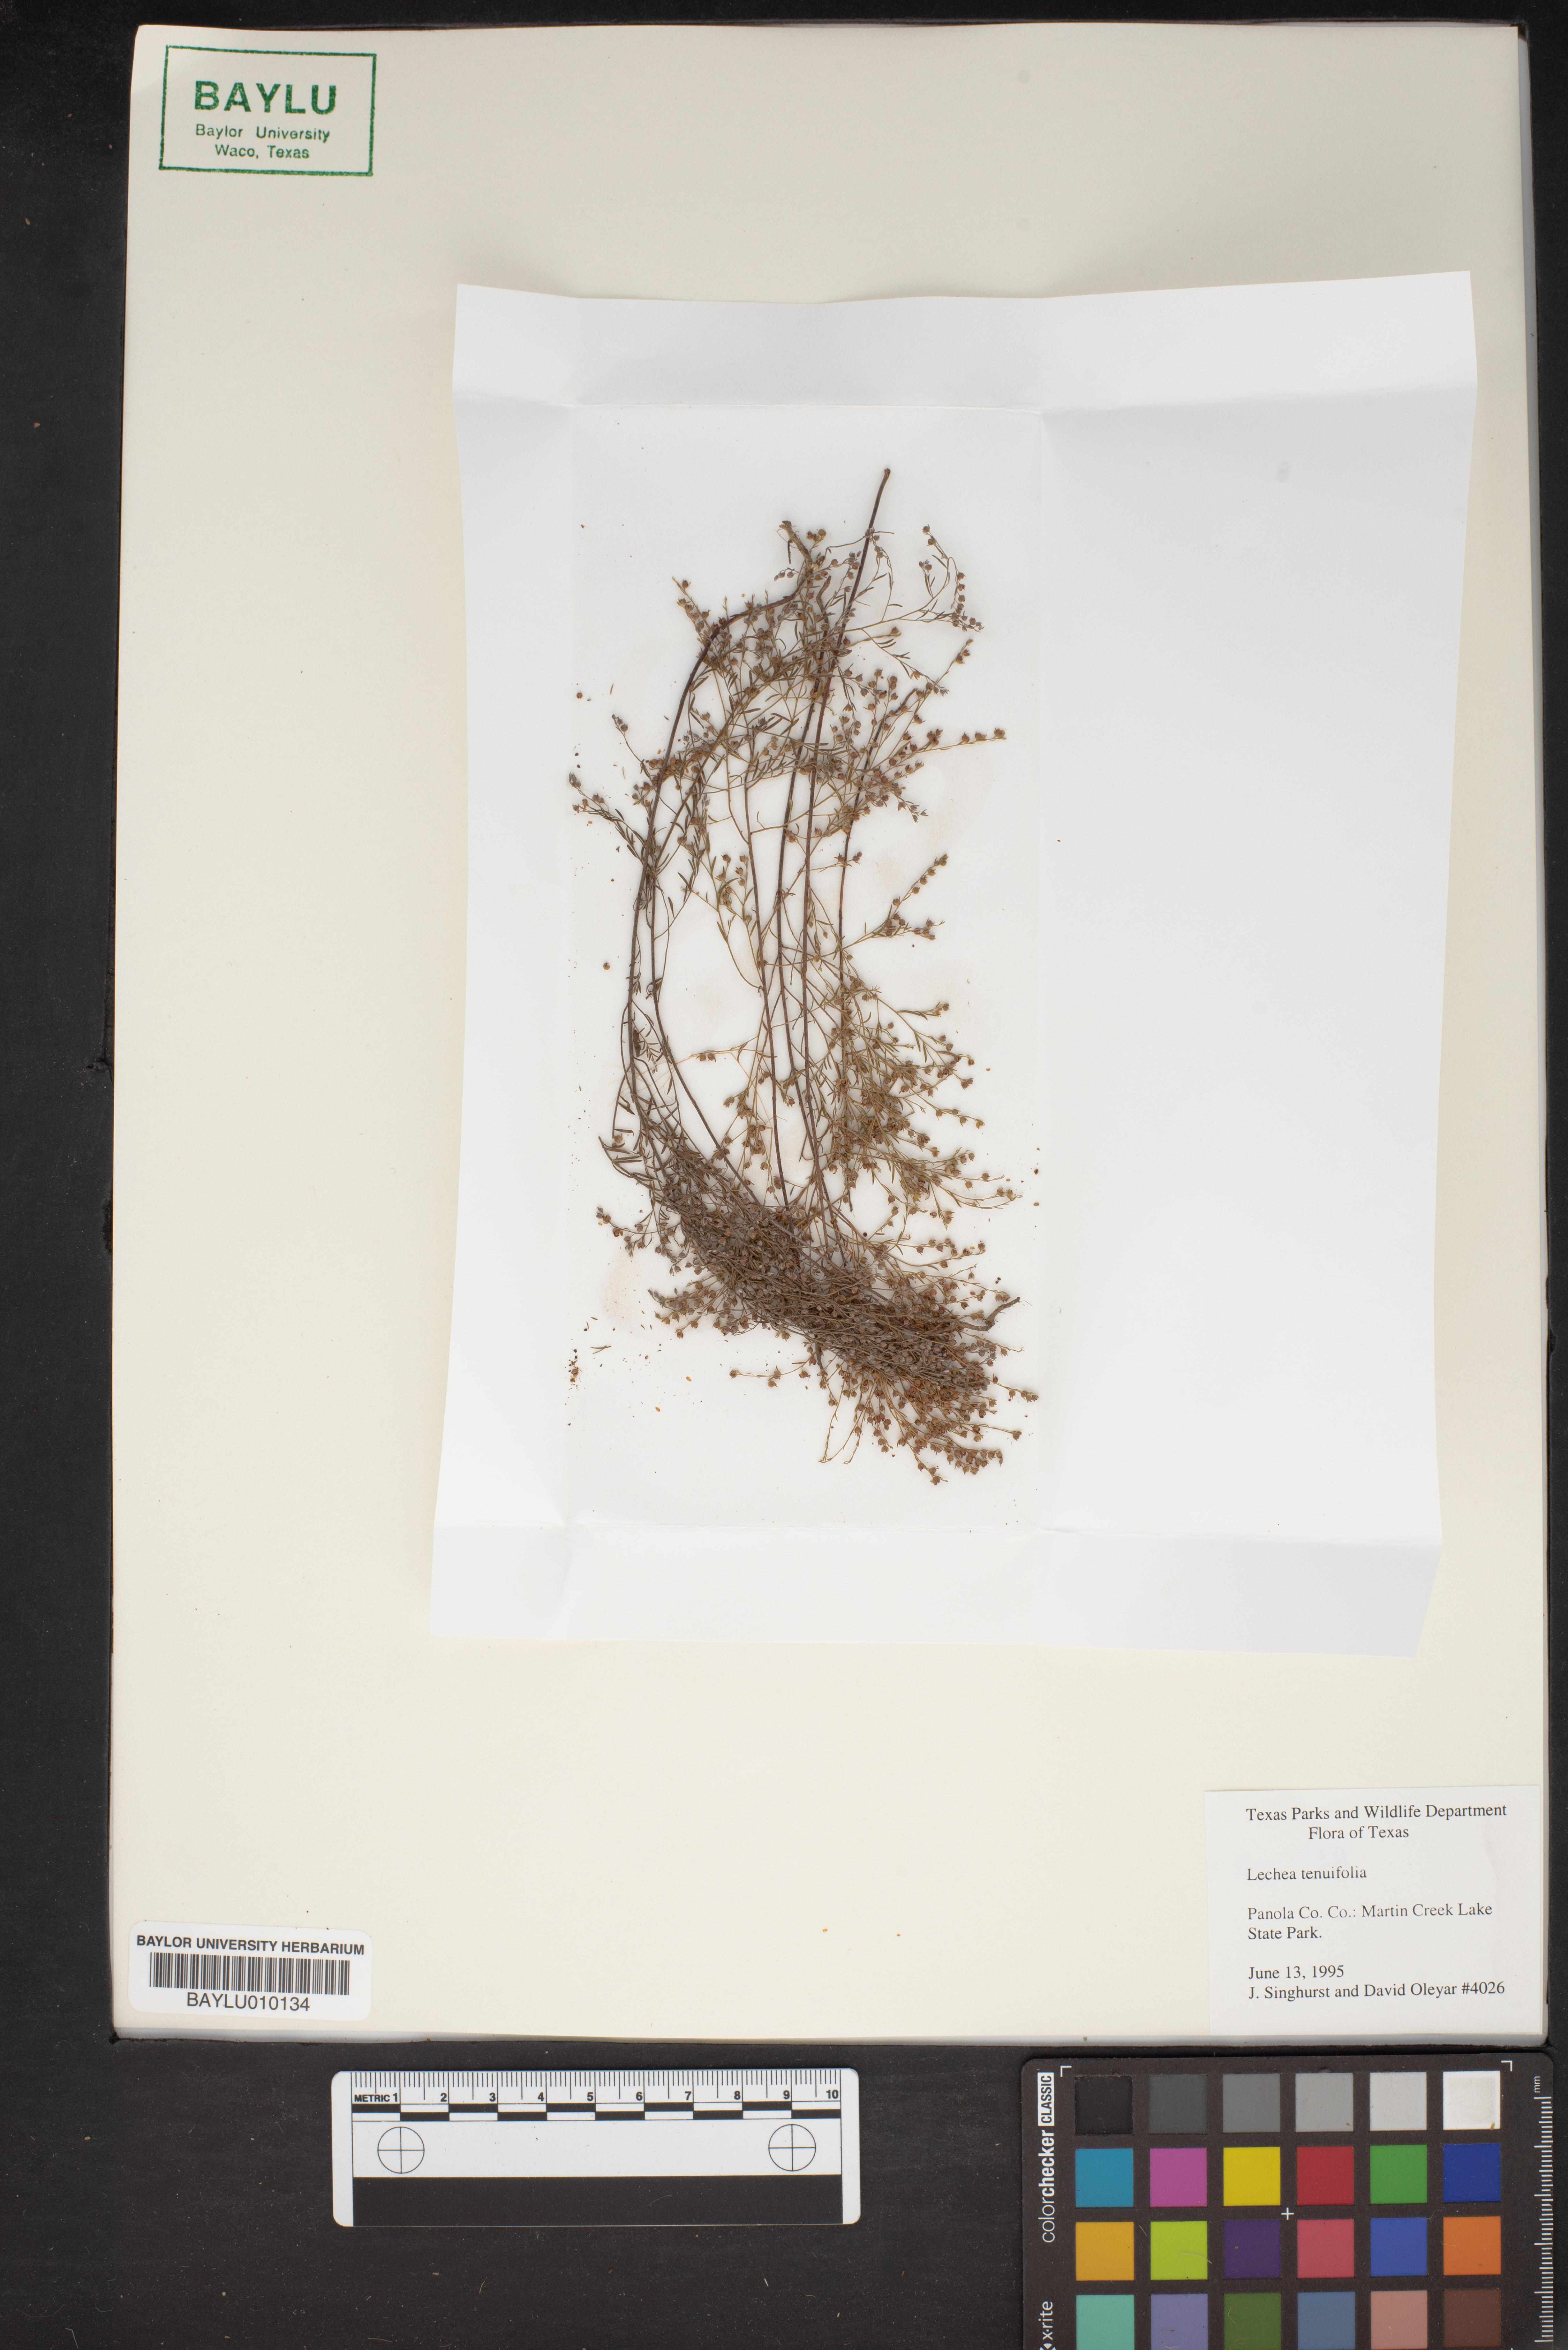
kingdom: Plantae
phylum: Tracheophyta
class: Magnoliopsida
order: Malvales
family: Cistaceae
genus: Lechea
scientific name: Lechea tenuifolia
